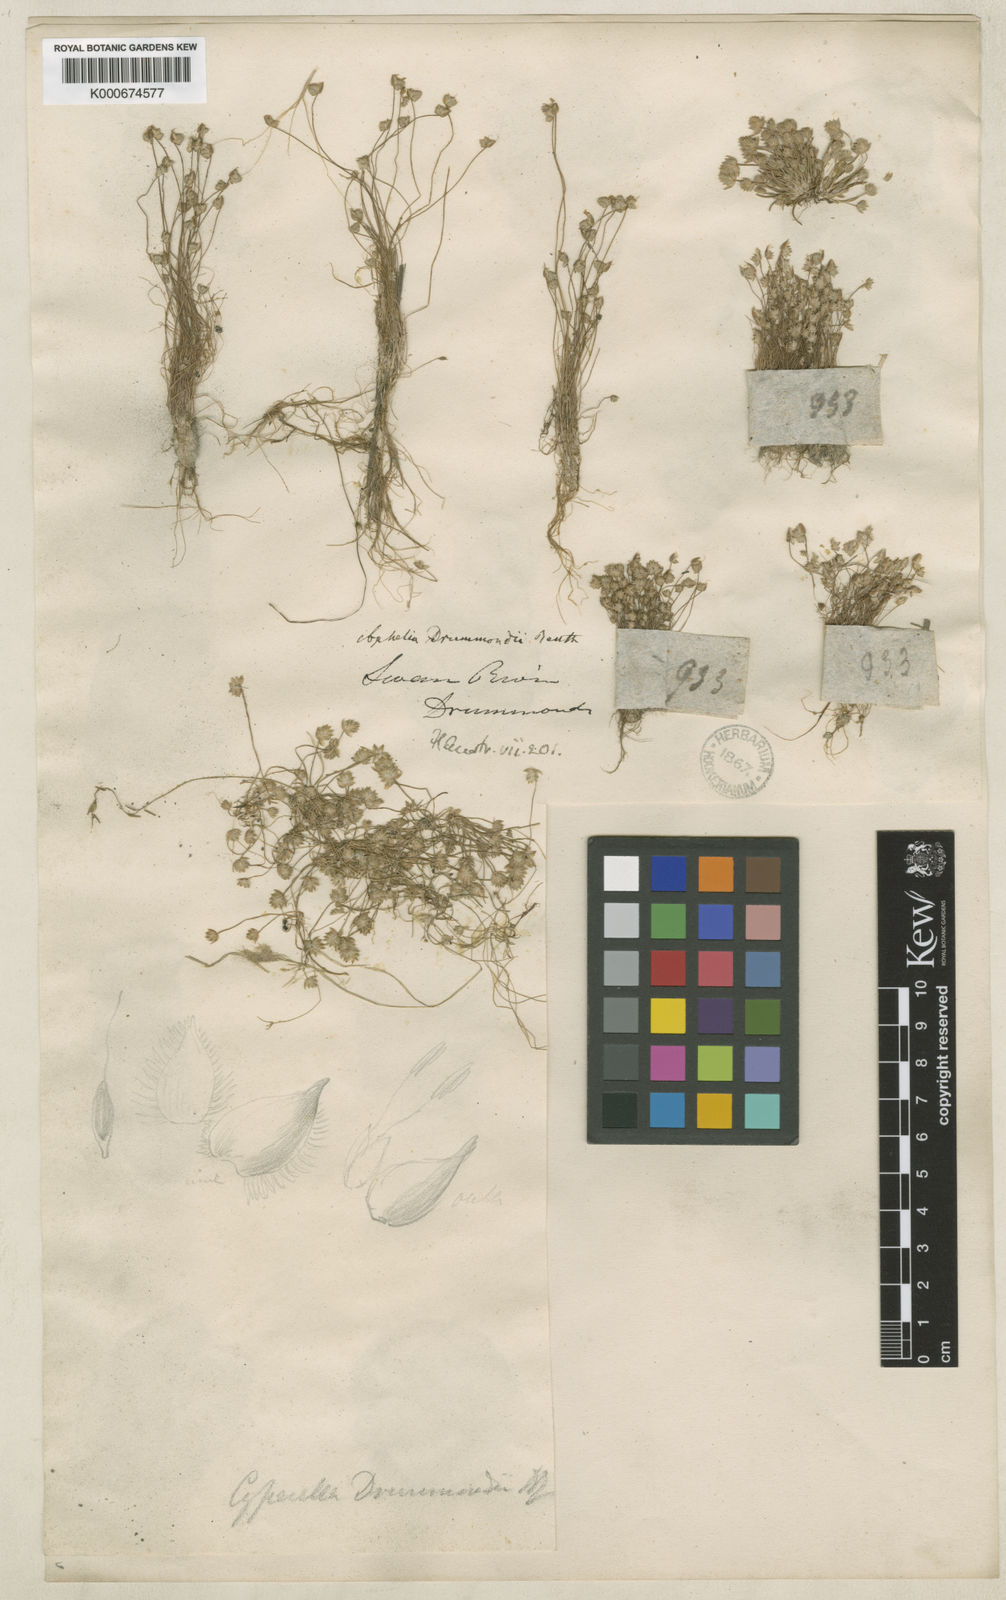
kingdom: Plantae
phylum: Tracheophyta
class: Liliopsida
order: Poales
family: Restionaceae
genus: Aphelia
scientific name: Aphelia drummondii
